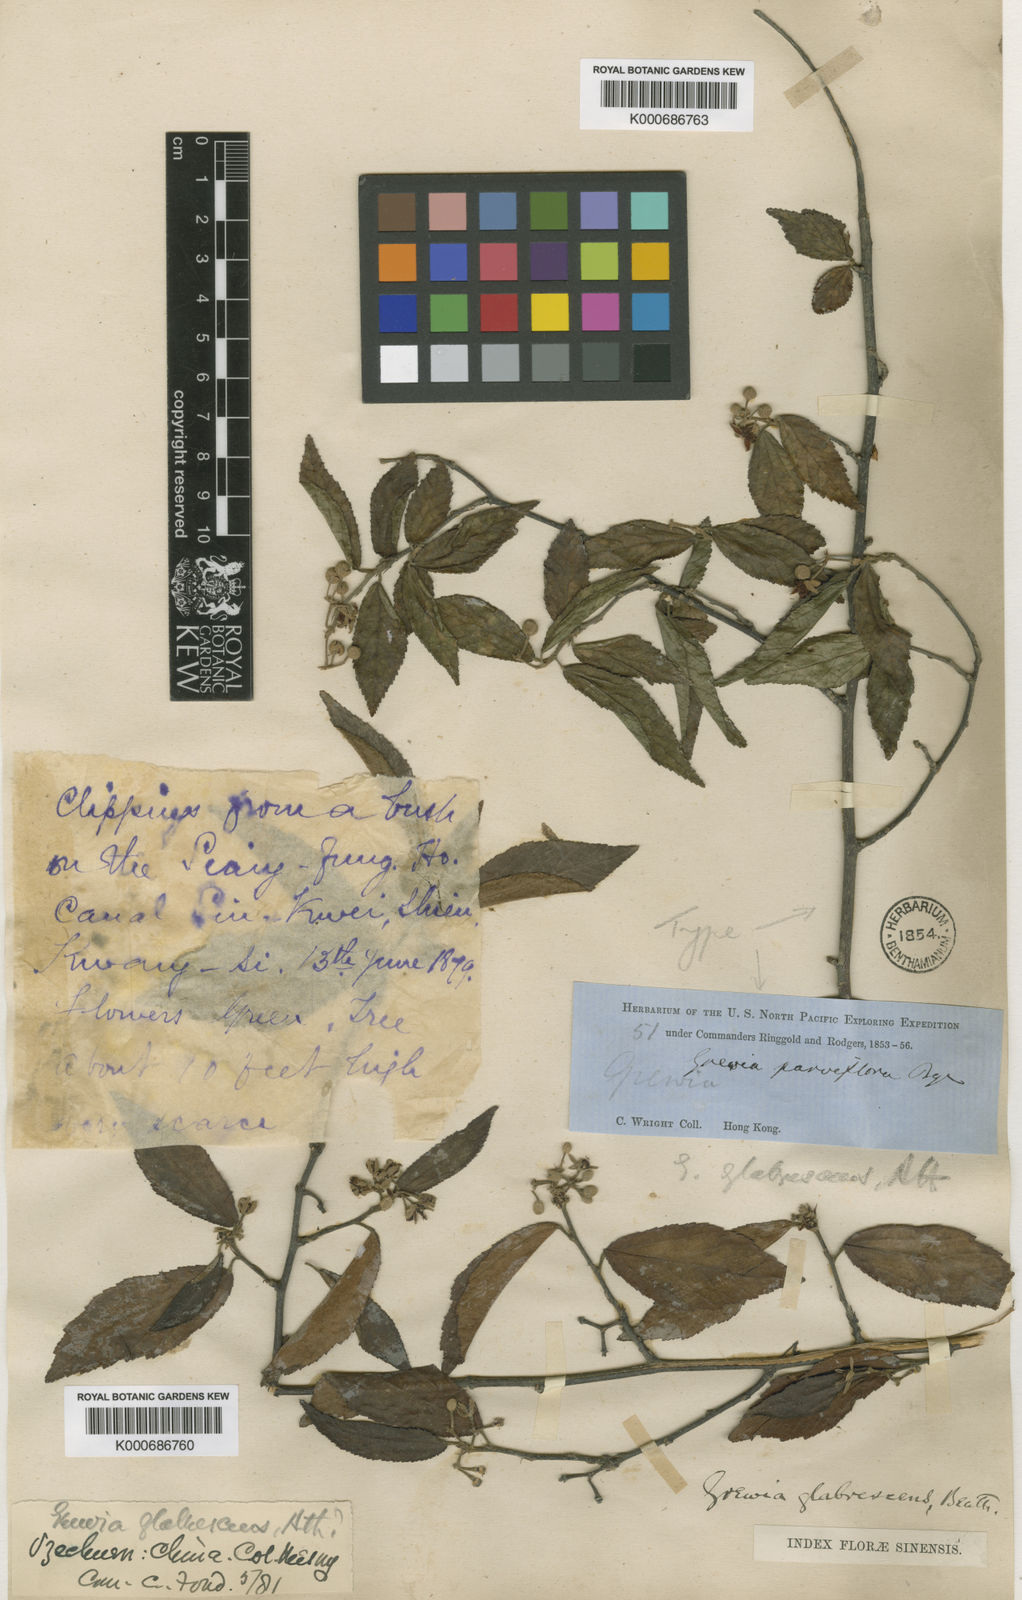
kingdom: Plantae
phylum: Tracheophyta
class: Magnoliopsida
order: Malvales
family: Malvaceae
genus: Grewia
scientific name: Grewia biloba
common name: Bilobed grewia
